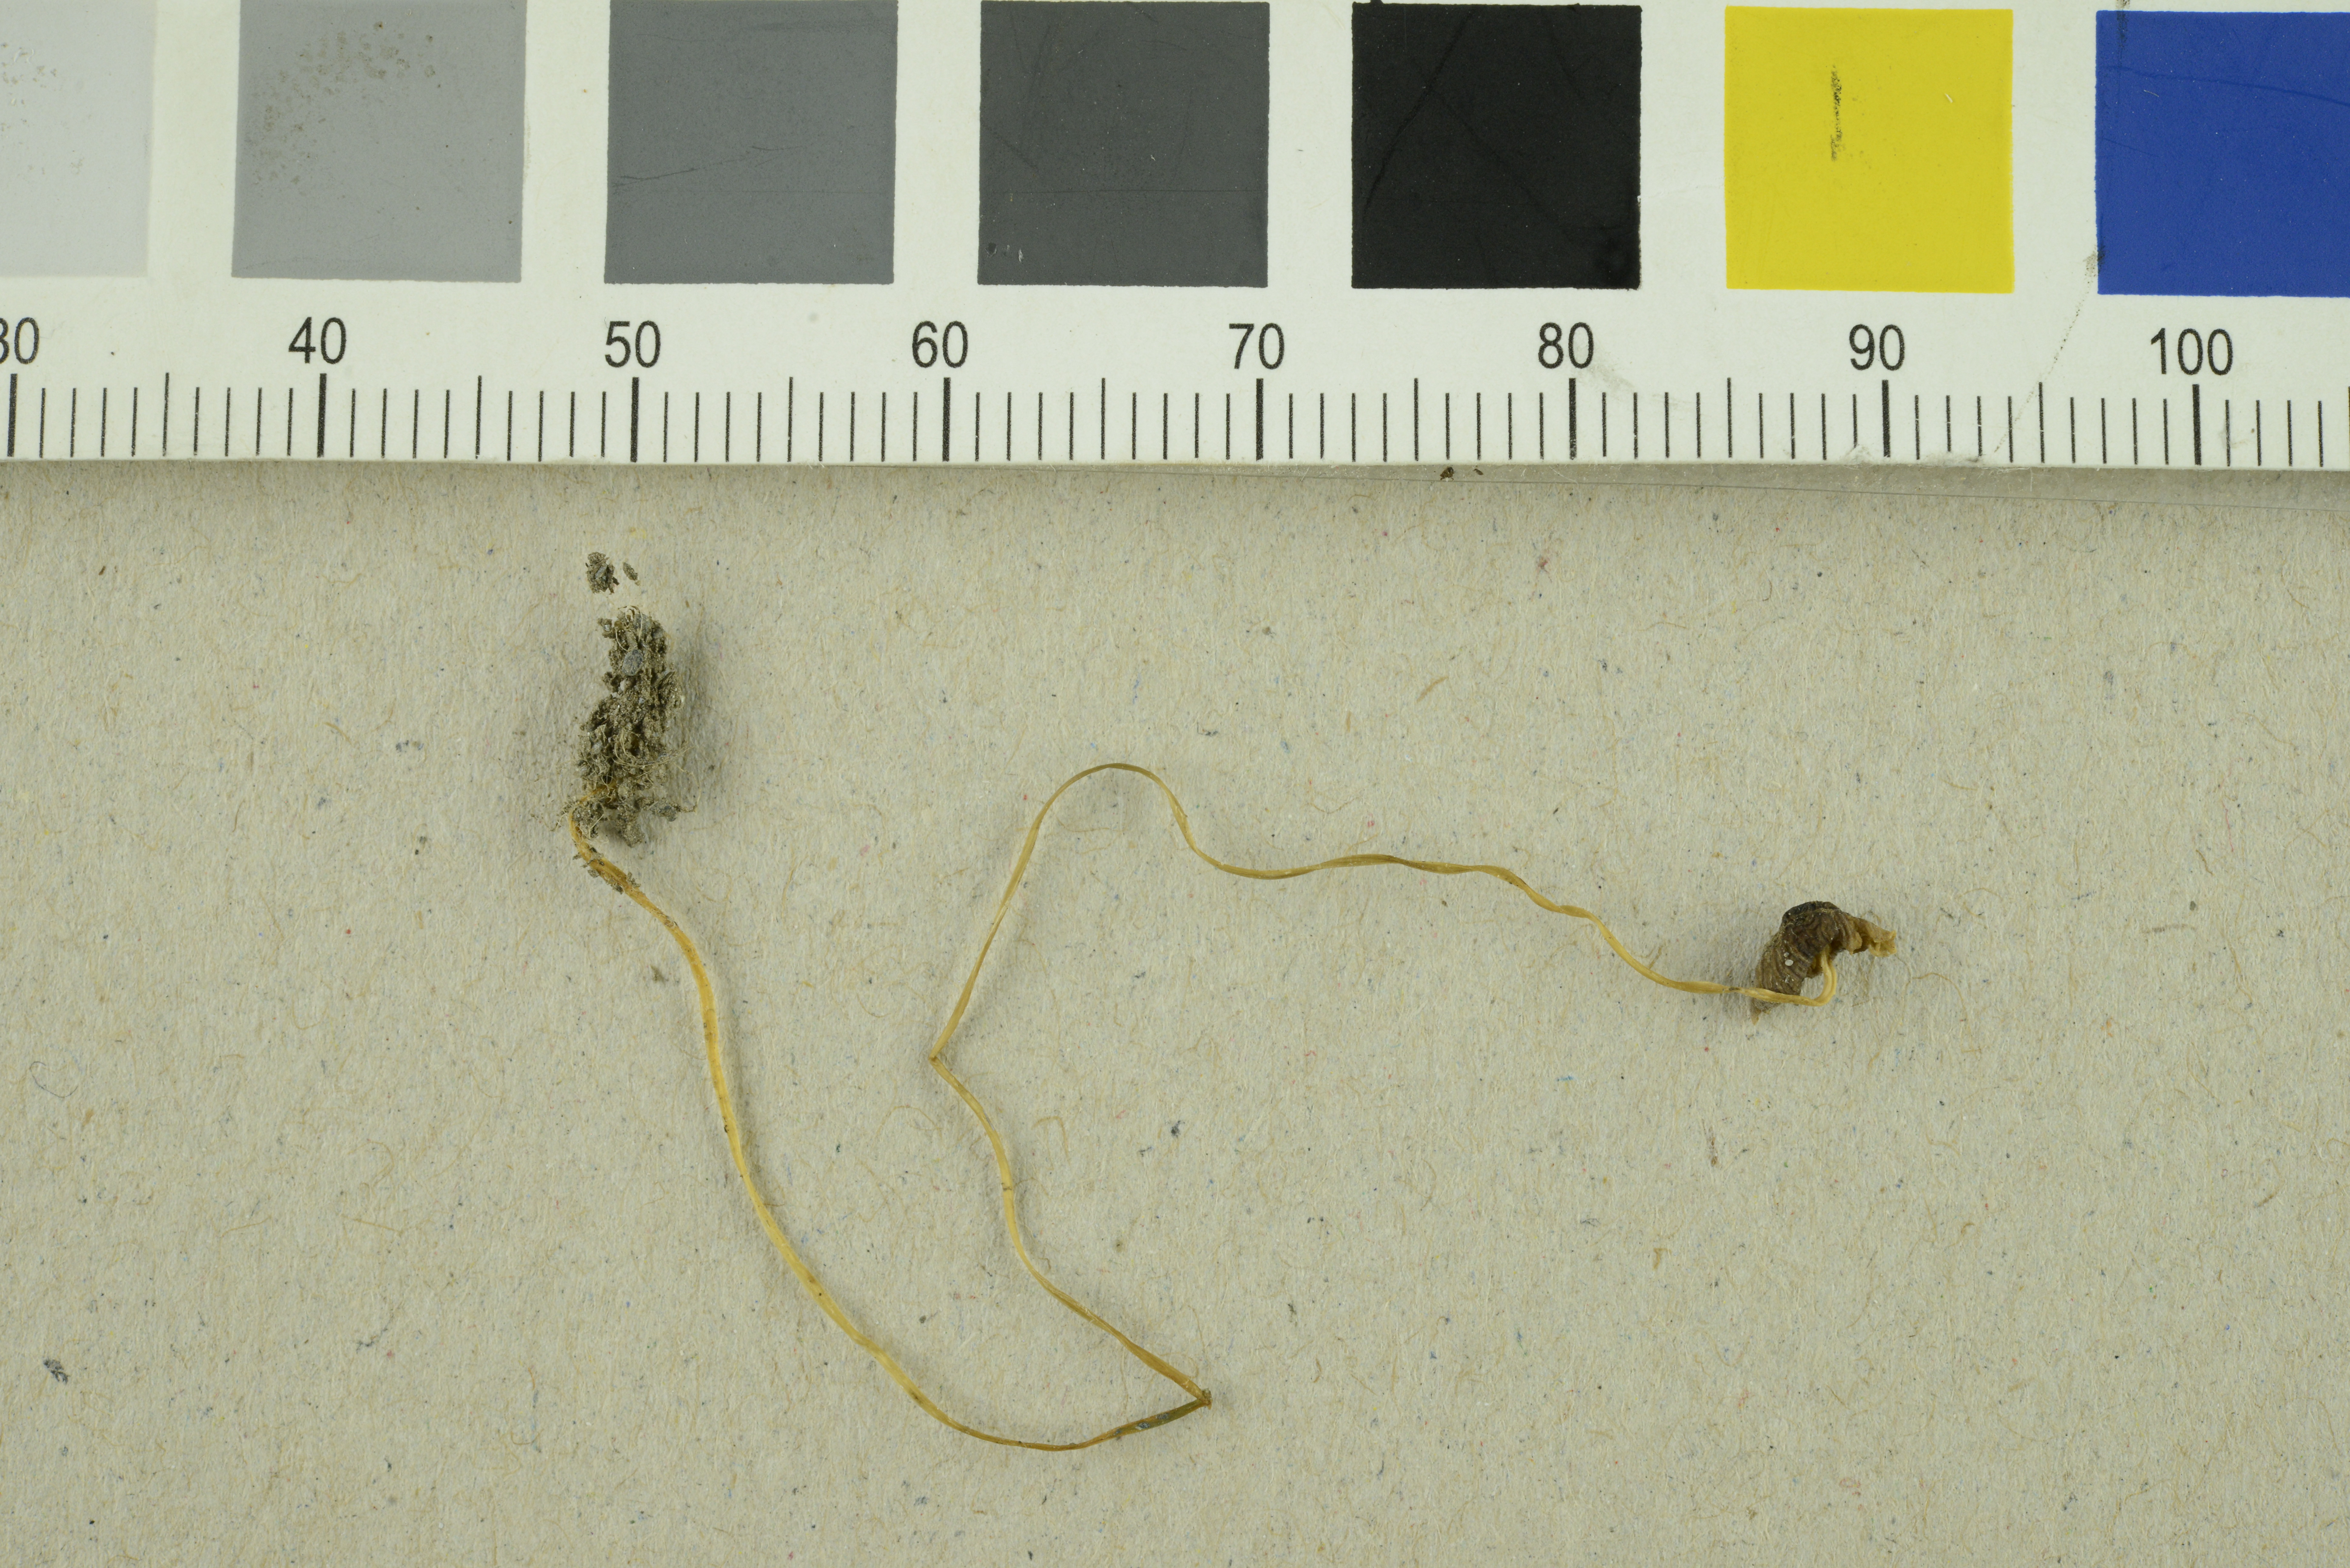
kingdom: Fungi
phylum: Basidiomycota
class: Agaricomycetes
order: Agaricales
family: Porotheleaceae
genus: Phloeomana
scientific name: Phloeomana atropapillata
